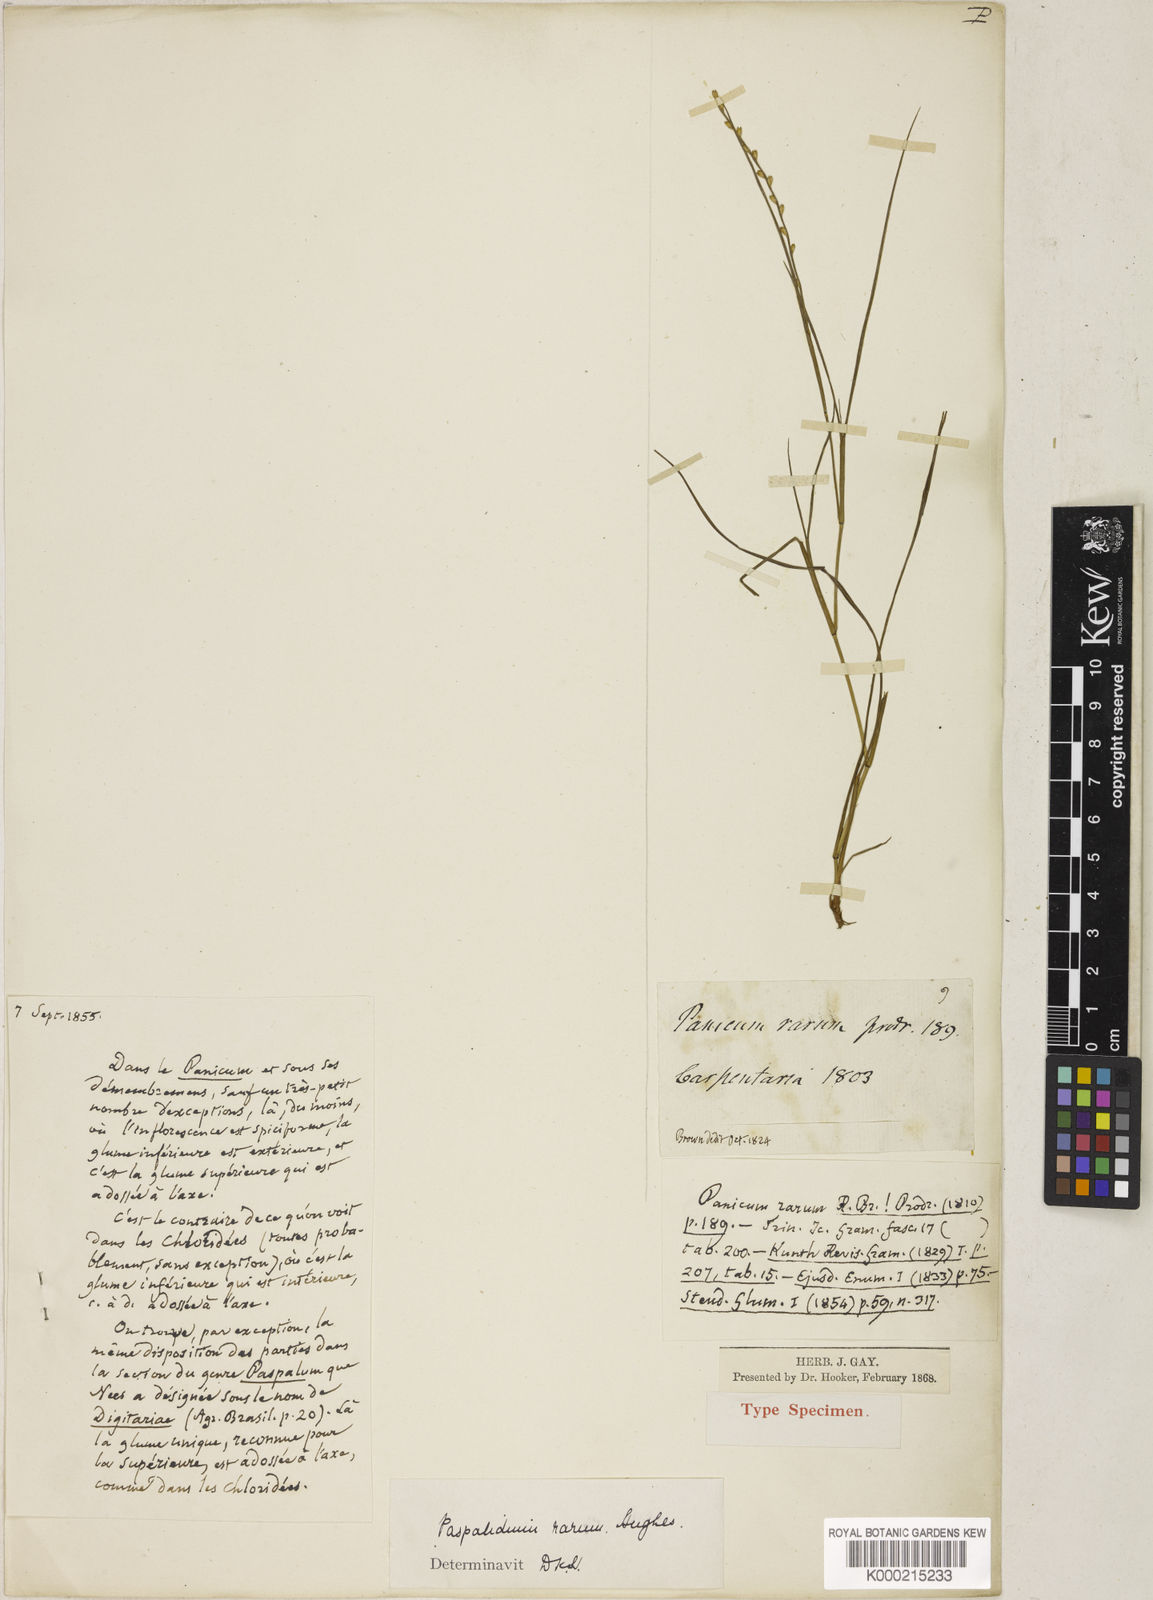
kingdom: Plantae
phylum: Tracheophyta
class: Liliopsida
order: Poales
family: Poaceae
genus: Setaria
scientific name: Setaria rara
